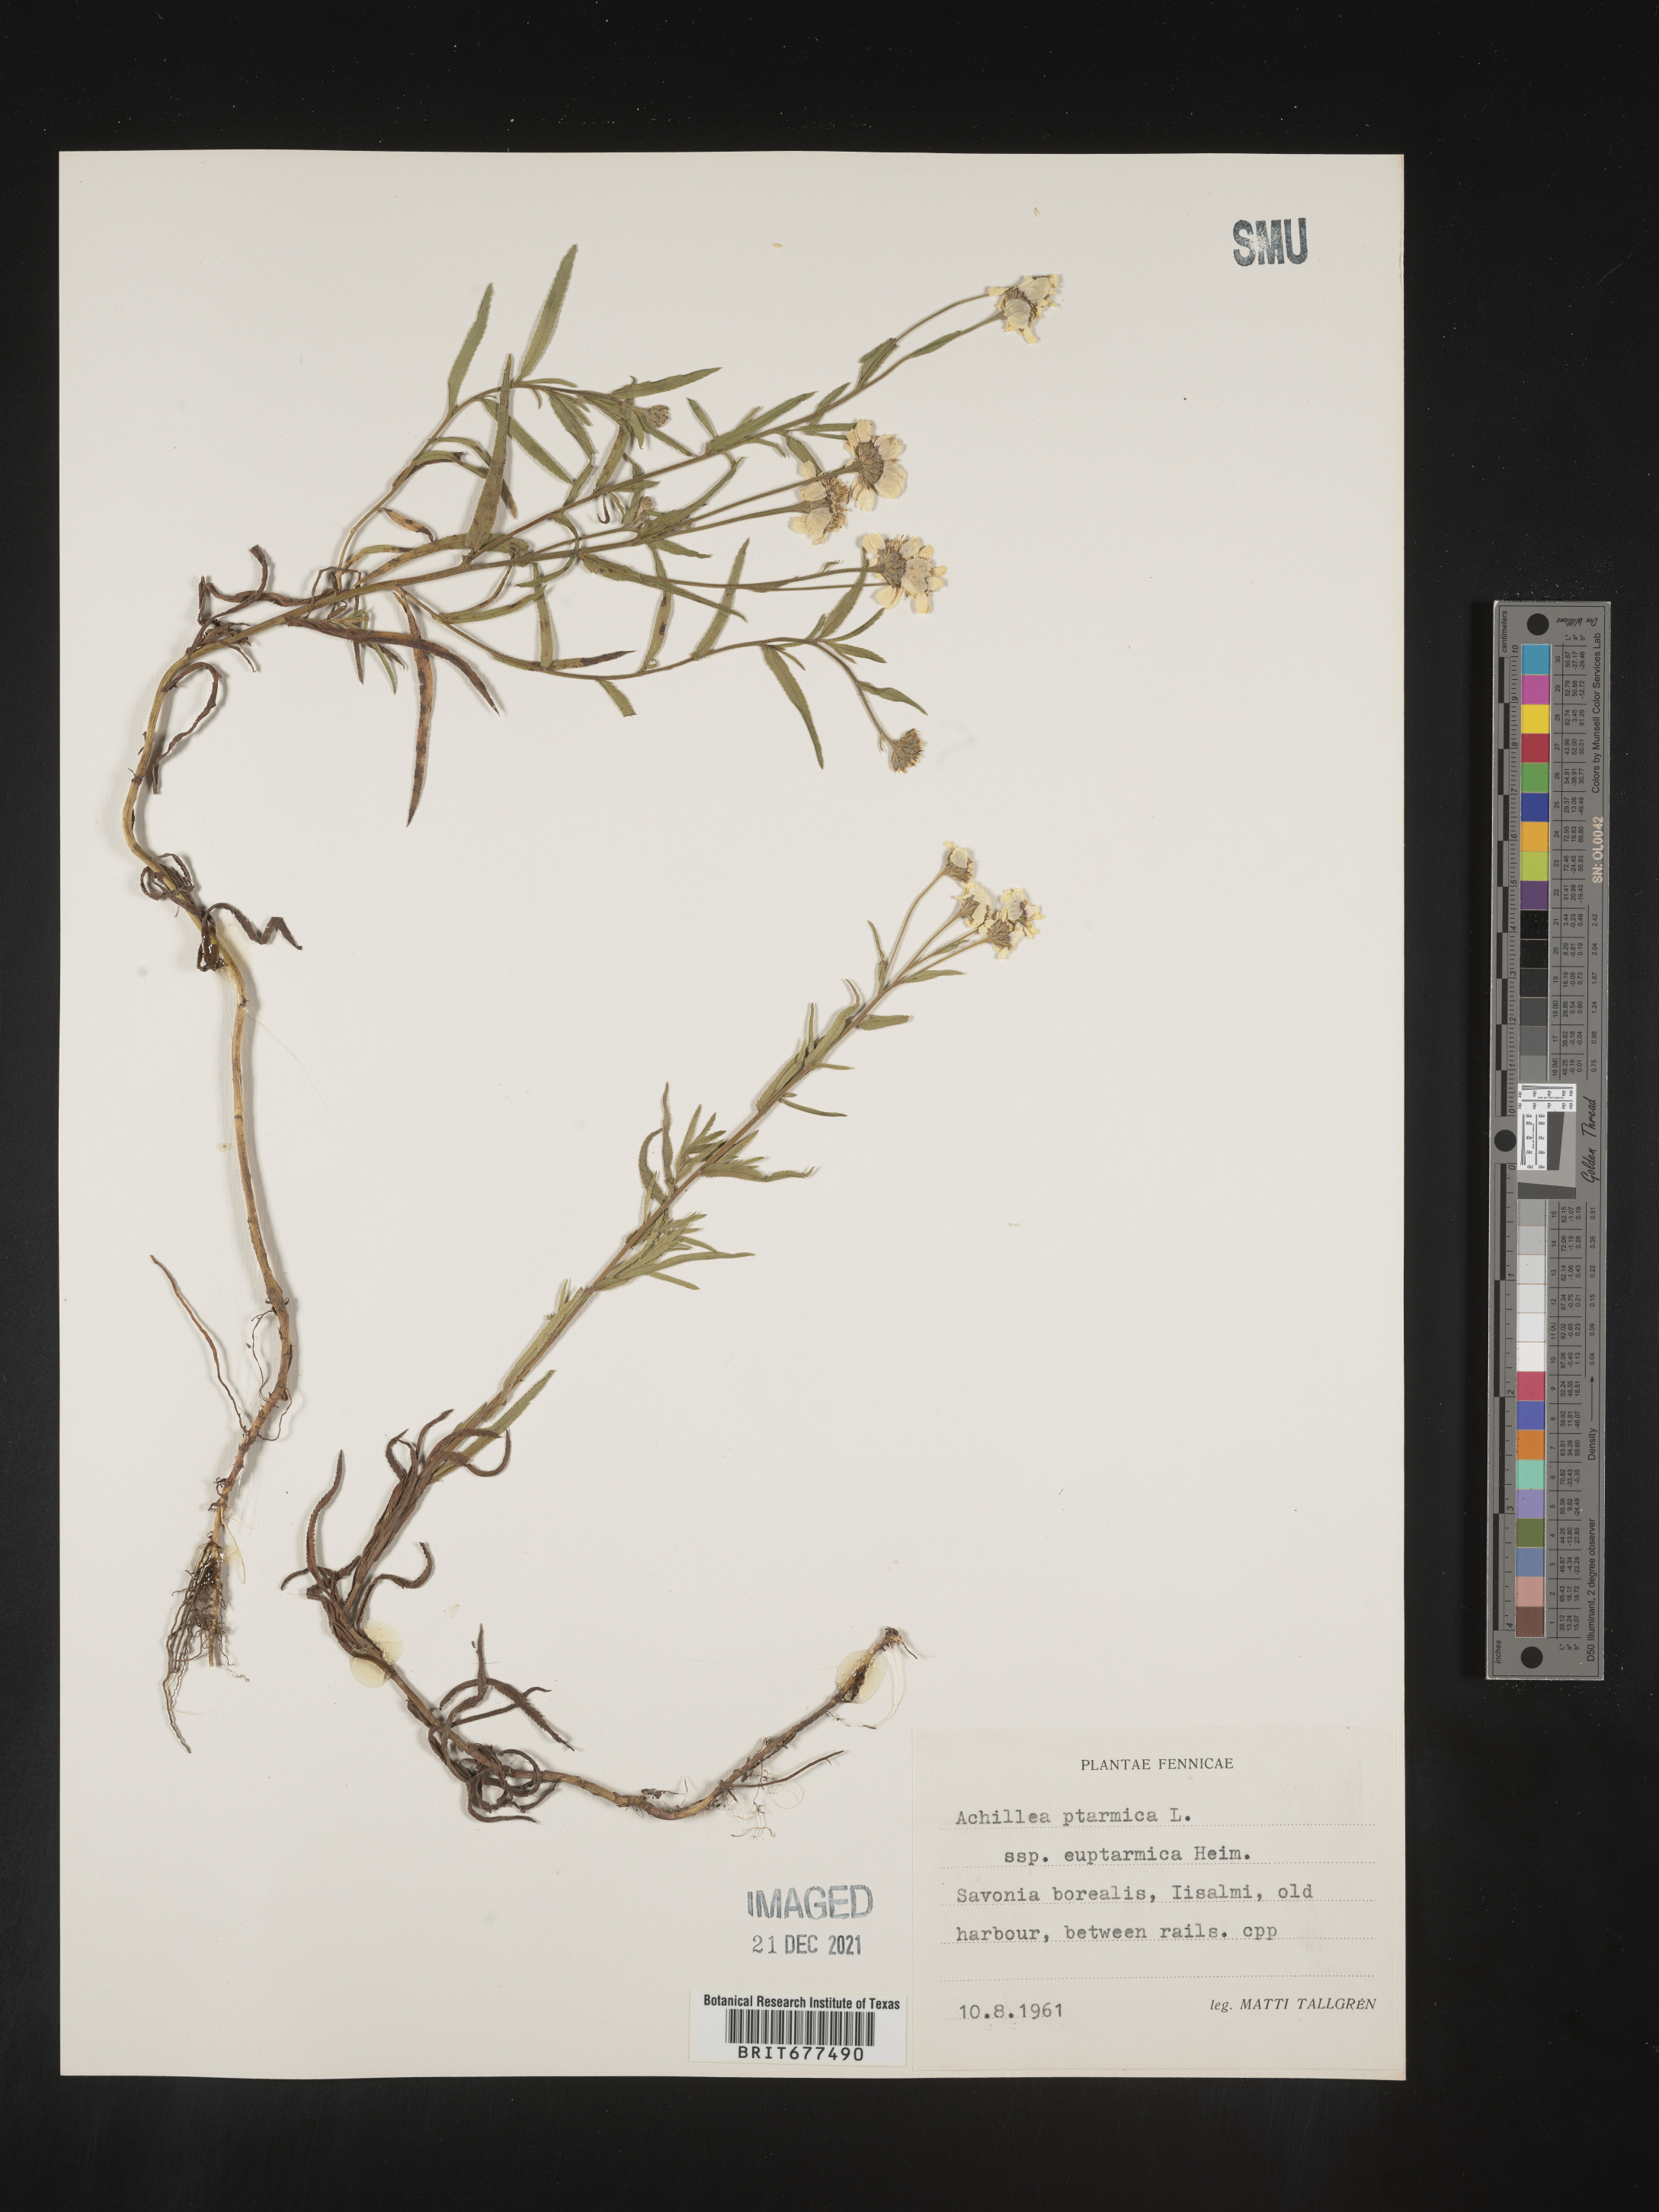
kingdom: Plantae
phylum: Tracheophyta
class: Magnoliopsida
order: Asterales
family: Asteraceae
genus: Achillea
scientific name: Achillea ptarmica
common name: Sneezeweed
